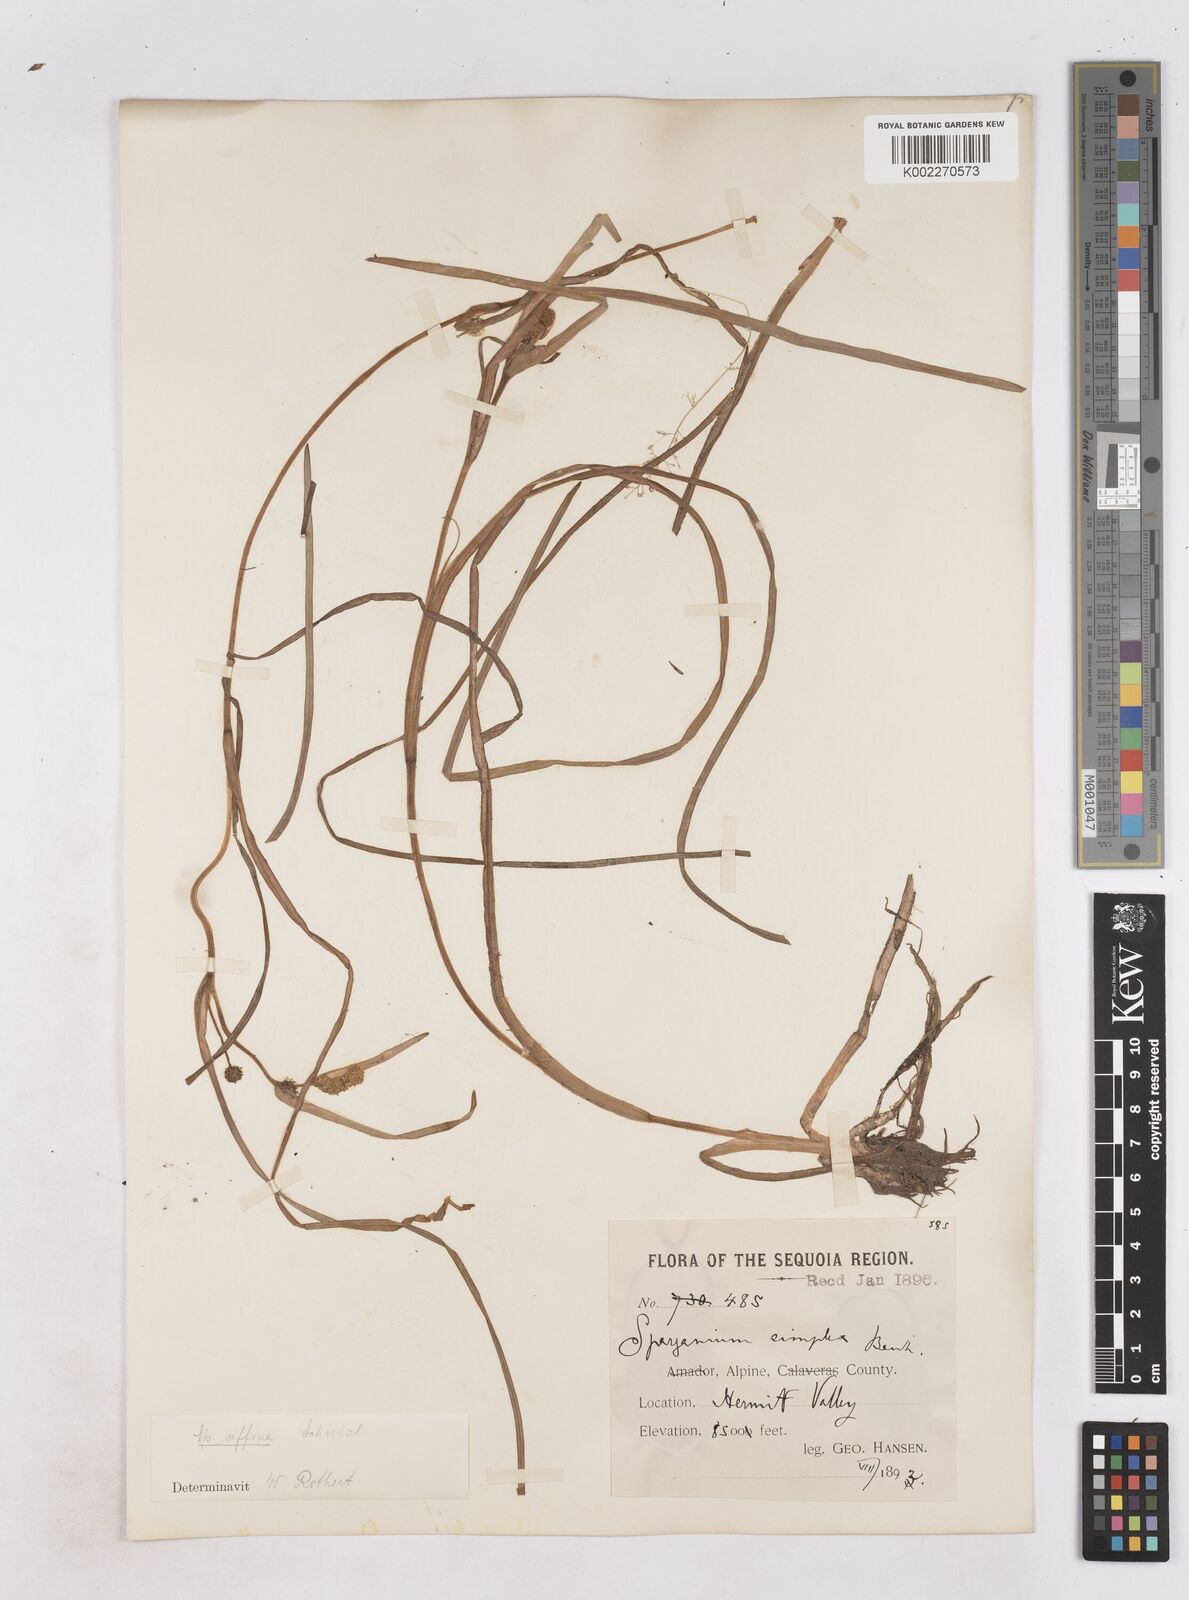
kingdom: Plantae
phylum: Tracheophyta
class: Liliopsida
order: Poales
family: Typhaceae
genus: Sparganium
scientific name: Sparganium angustifolium
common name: Floating bur-reed
